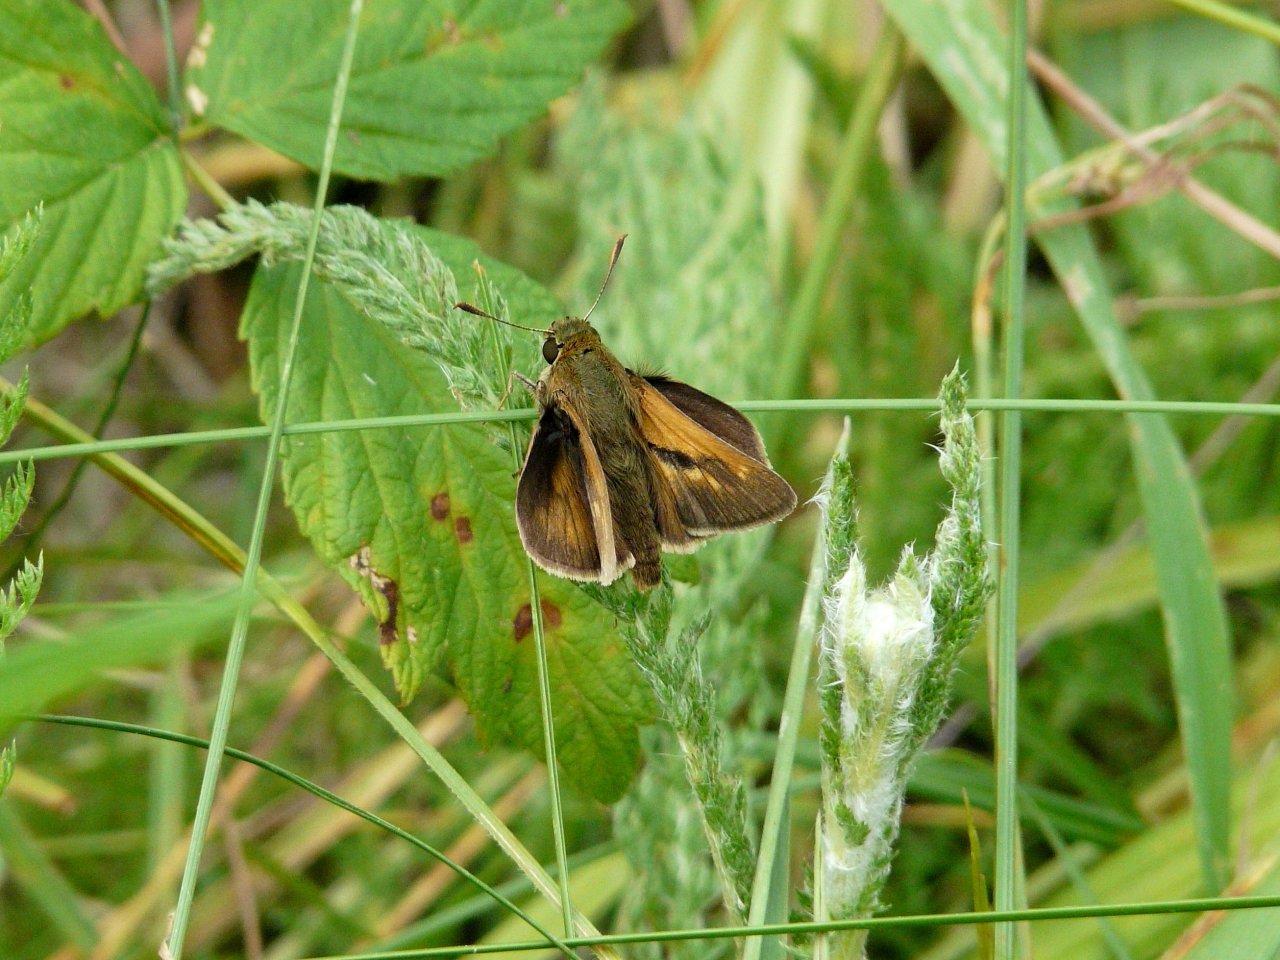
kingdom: Animalia
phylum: Arthropoda
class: Insecta
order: Lepidoptera
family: Hesperiidae
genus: Polites
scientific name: Polites
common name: Crossline Skipper
